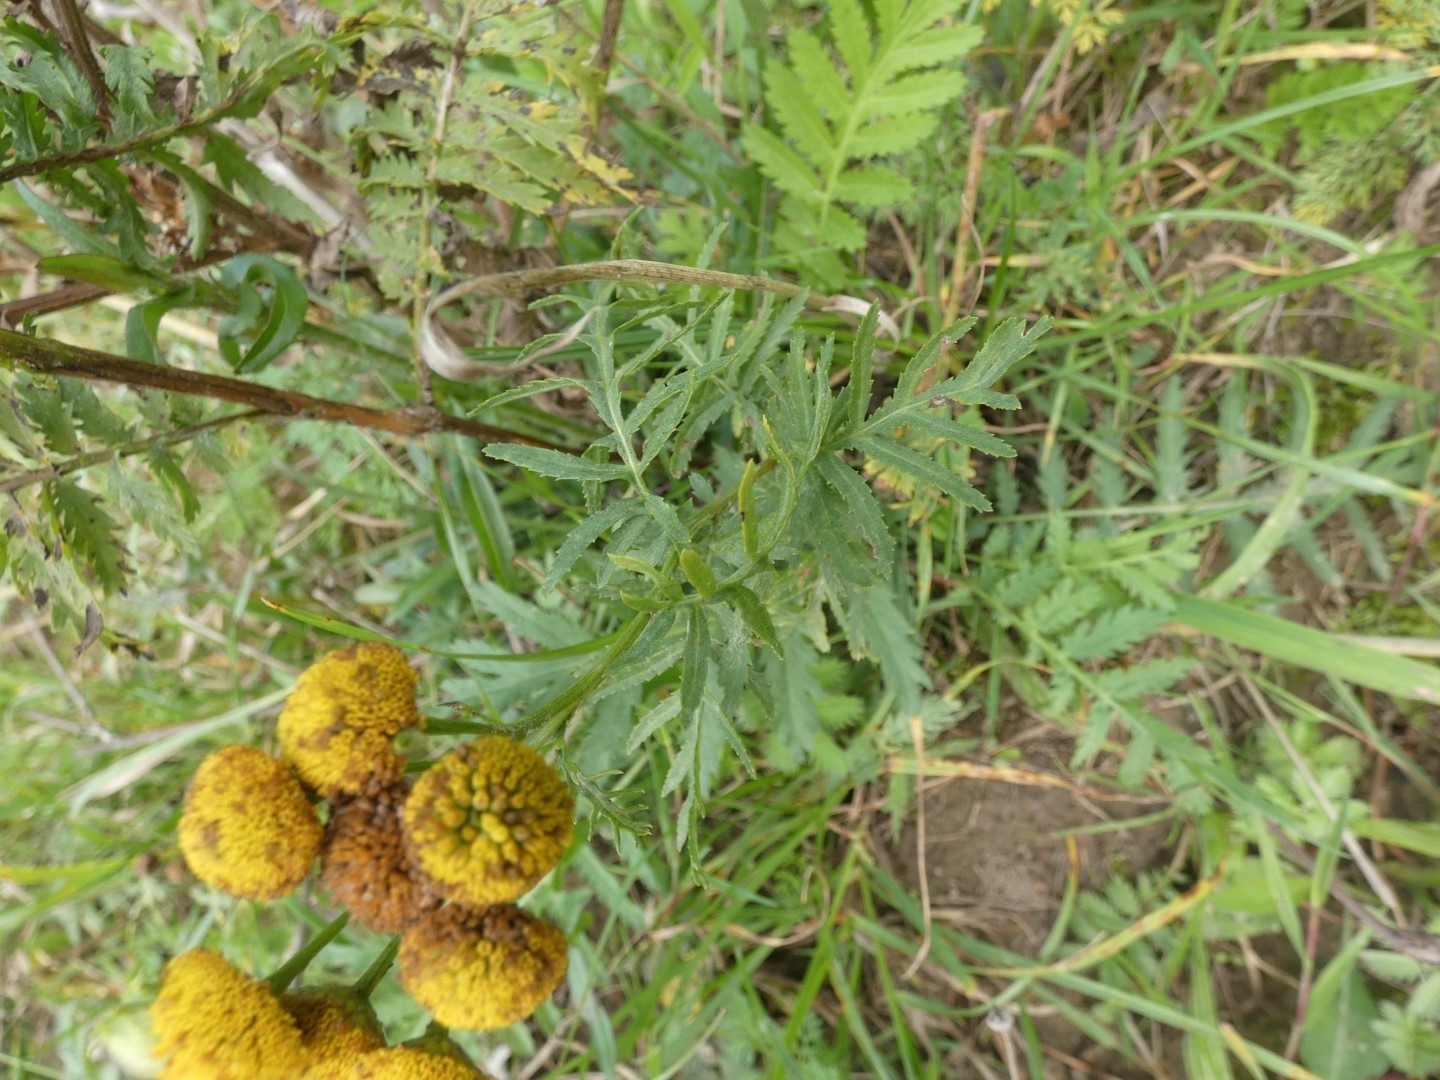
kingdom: Plantae
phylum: Tracheophyta
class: Magnoliopsida
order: Asterales
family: Asteraceae
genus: Tanacetum
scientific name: Tanacetum vulgare
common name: Rejnfan
